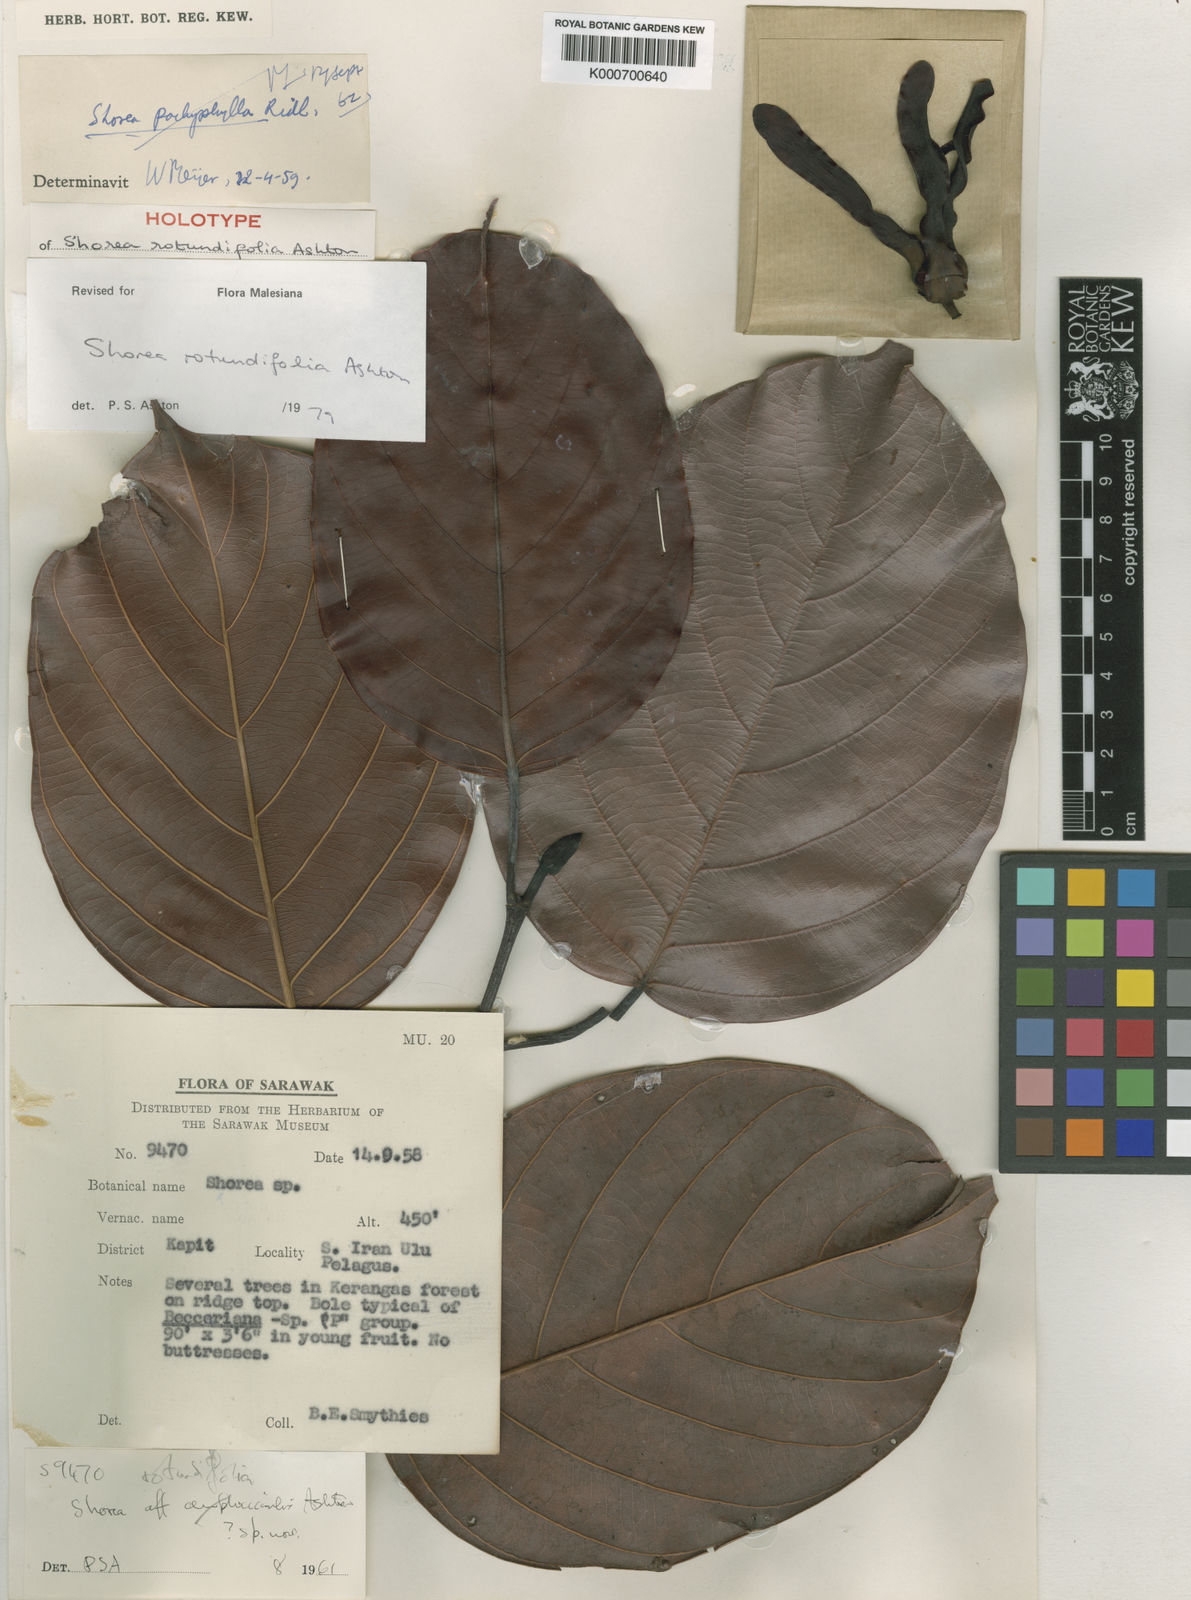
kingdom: Plantae
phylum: Tracheophyta
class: Magnoliopsida
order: Malvales
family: Dipterocarpaceae
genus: Shorea
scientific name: Shorea rotundifolia
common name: Light red meranti
